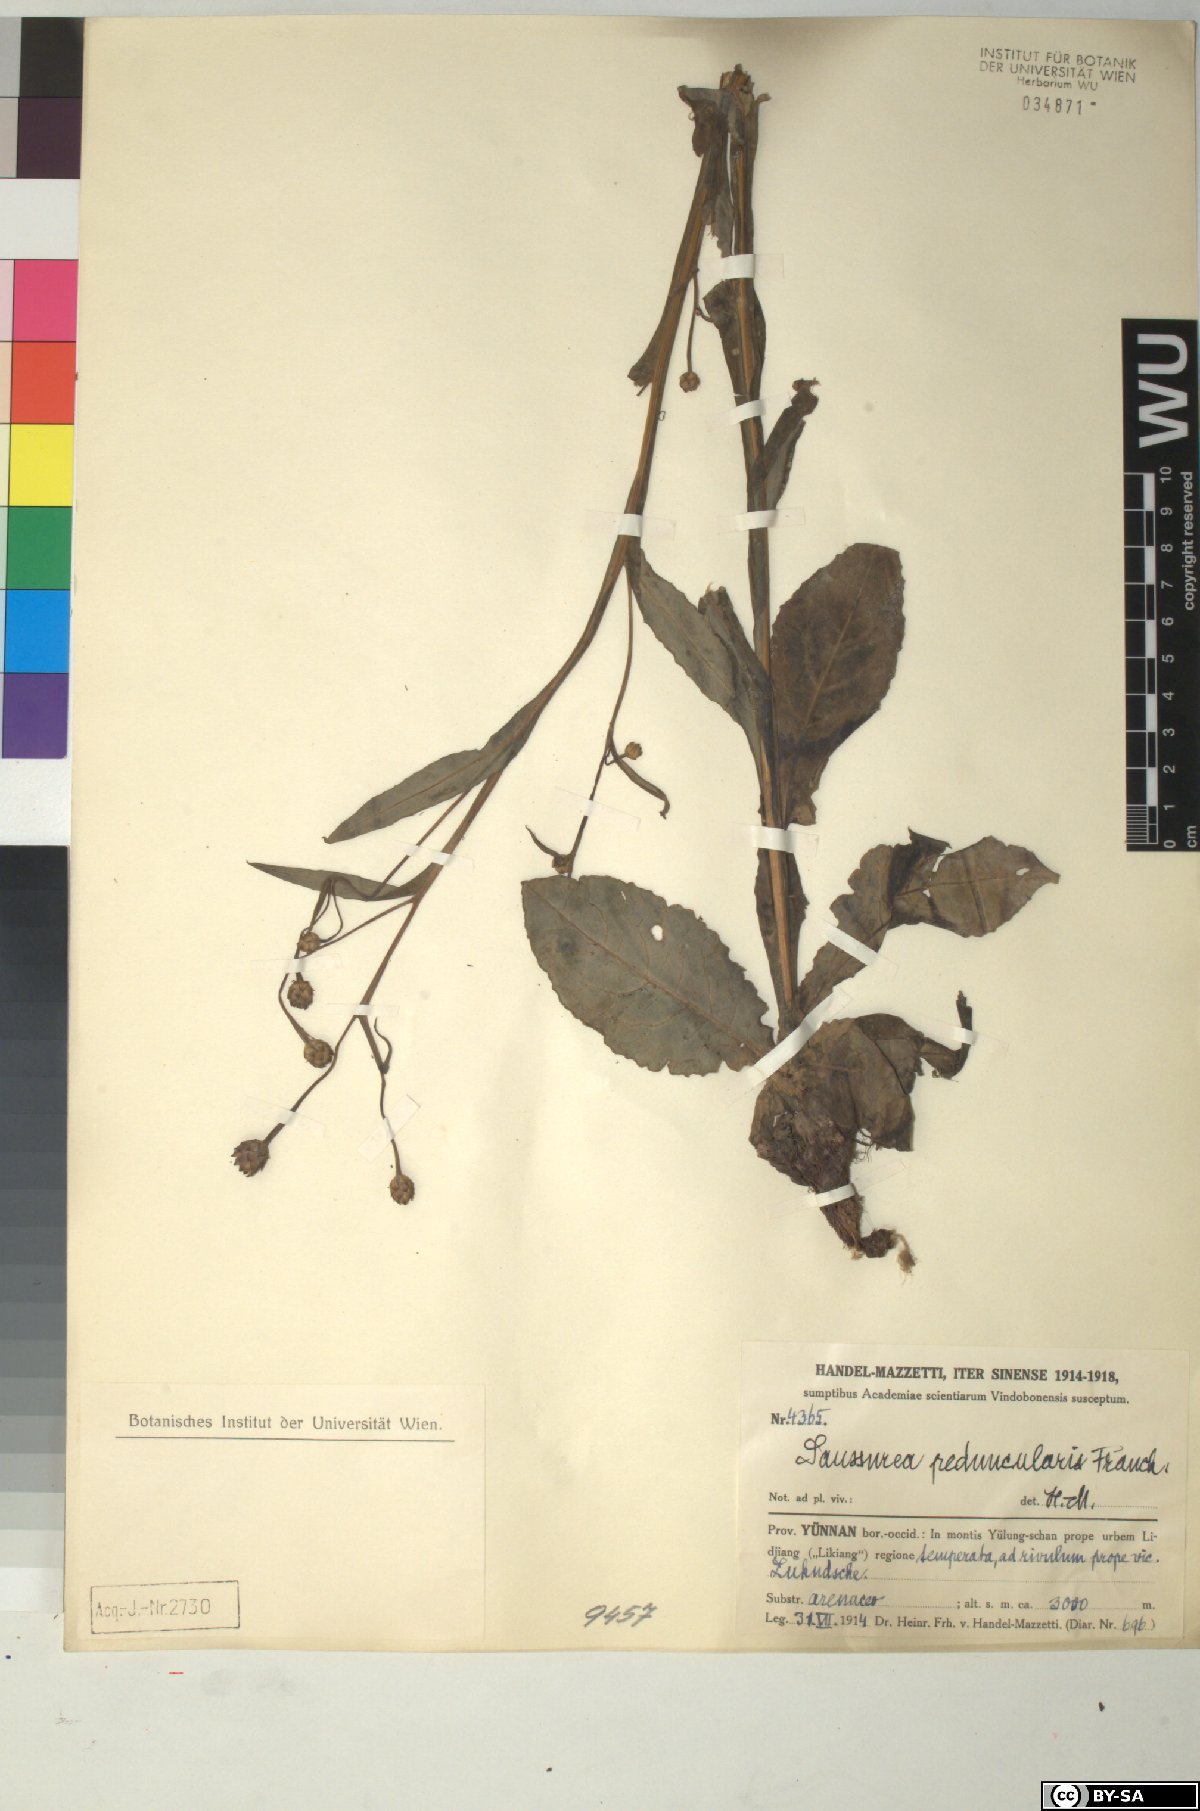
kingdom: Plantae
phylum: Tracheophyta
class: Magnoliopsida
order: Asterales
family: Asteraceae
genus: Saussurea
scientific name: Saussurea peduncularis
